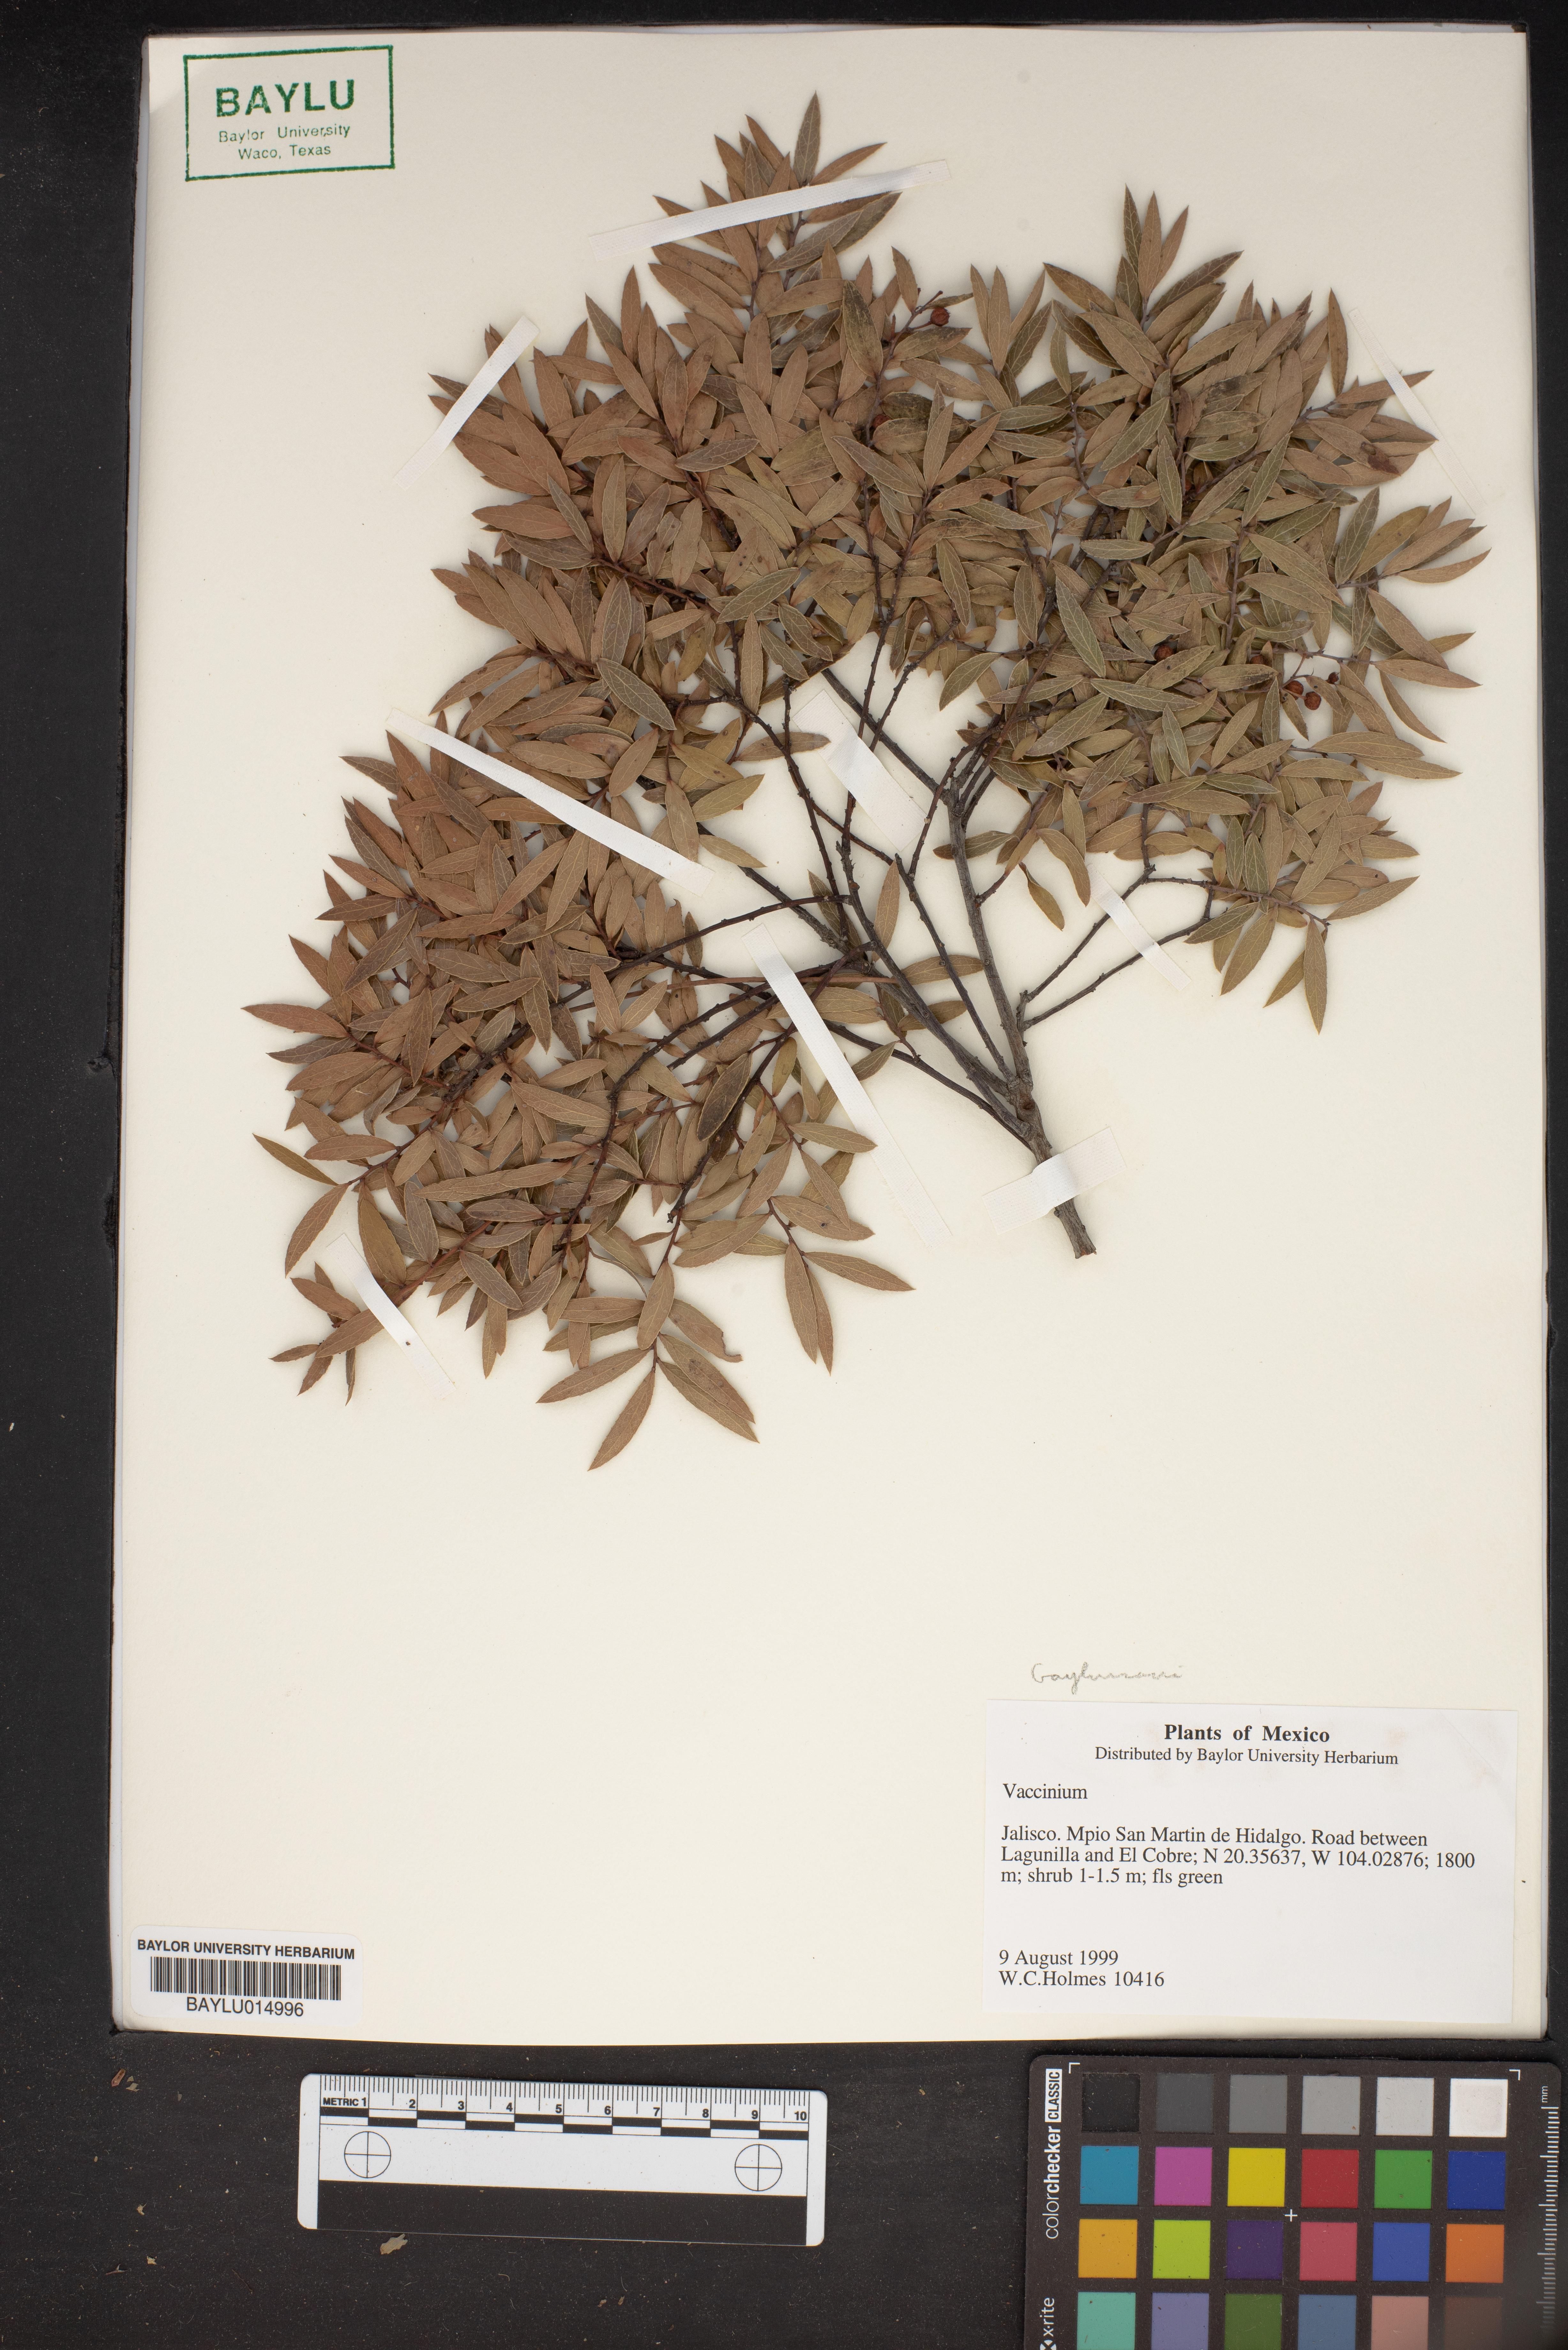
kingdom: Plantae
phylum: Tracheophyta
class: Magnoliopsida
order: Ericales
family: Ericaceae
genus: Vaccinium
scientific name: Vaccinium
